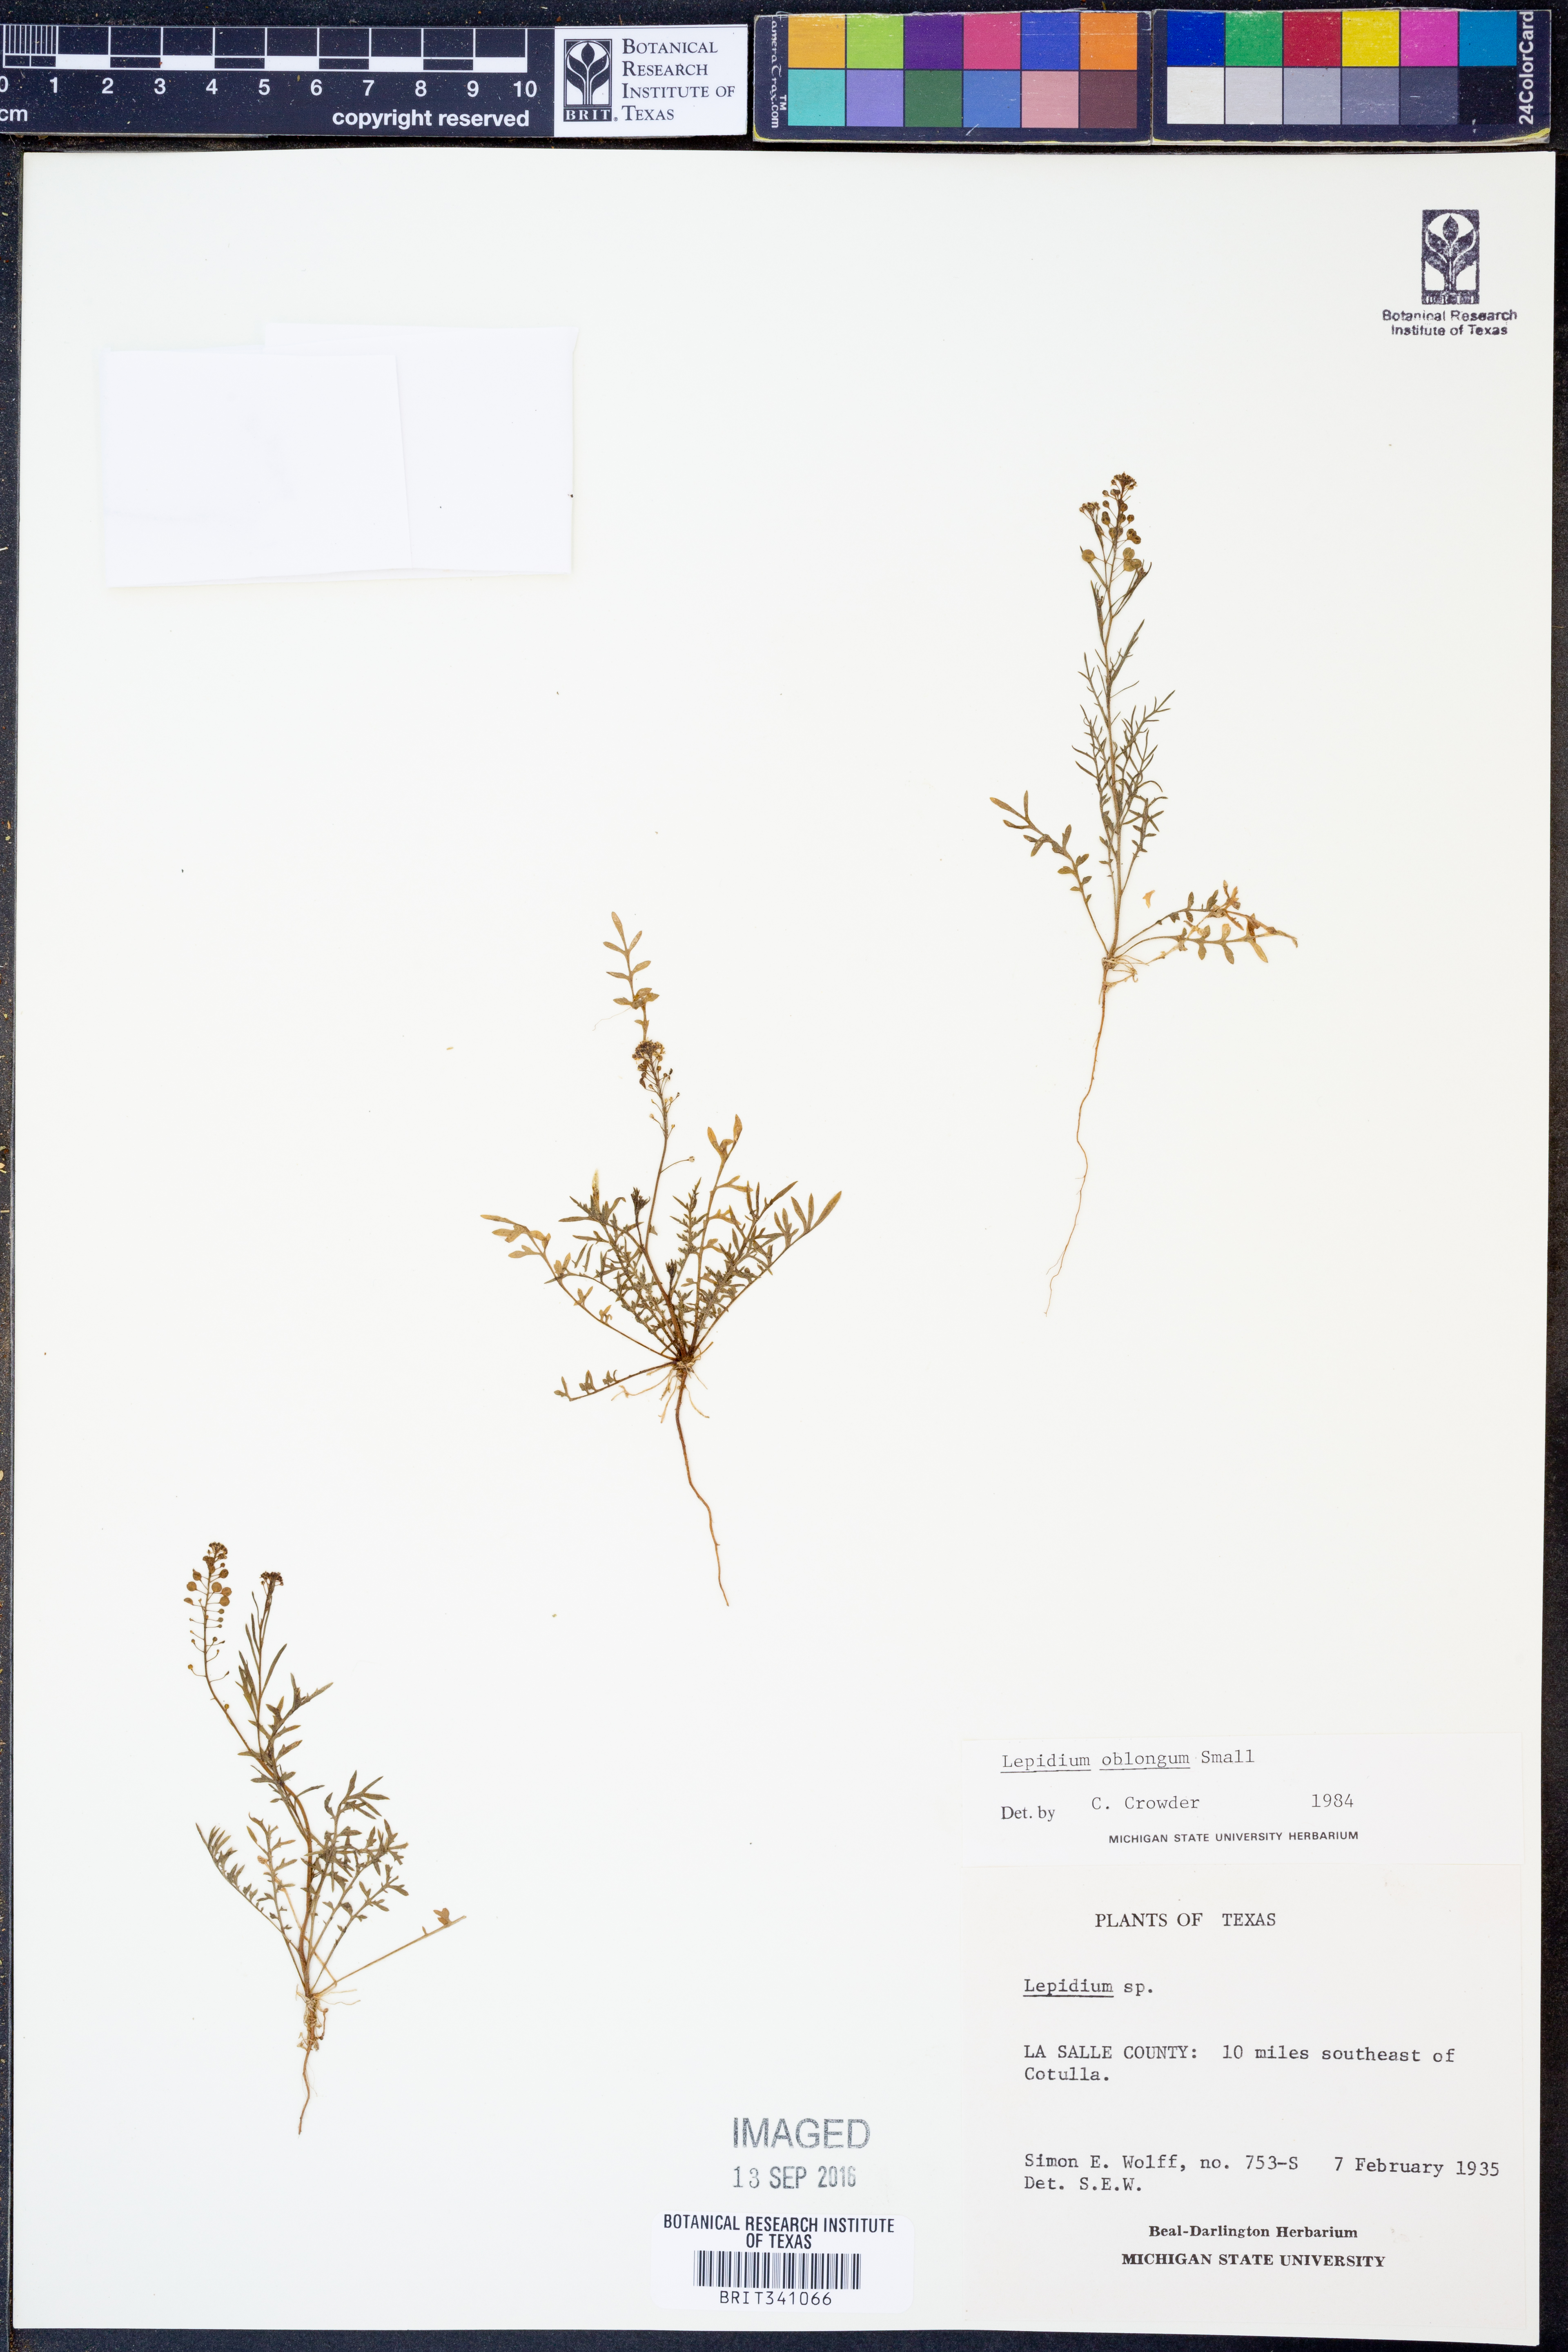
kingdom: Plantae
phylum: Tracheophyta
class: Magnoliopsida
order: Brassicales
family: Brassicaceae
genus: Lepidium
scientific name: Lepidium oblongum
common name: Veiny pepperweed
